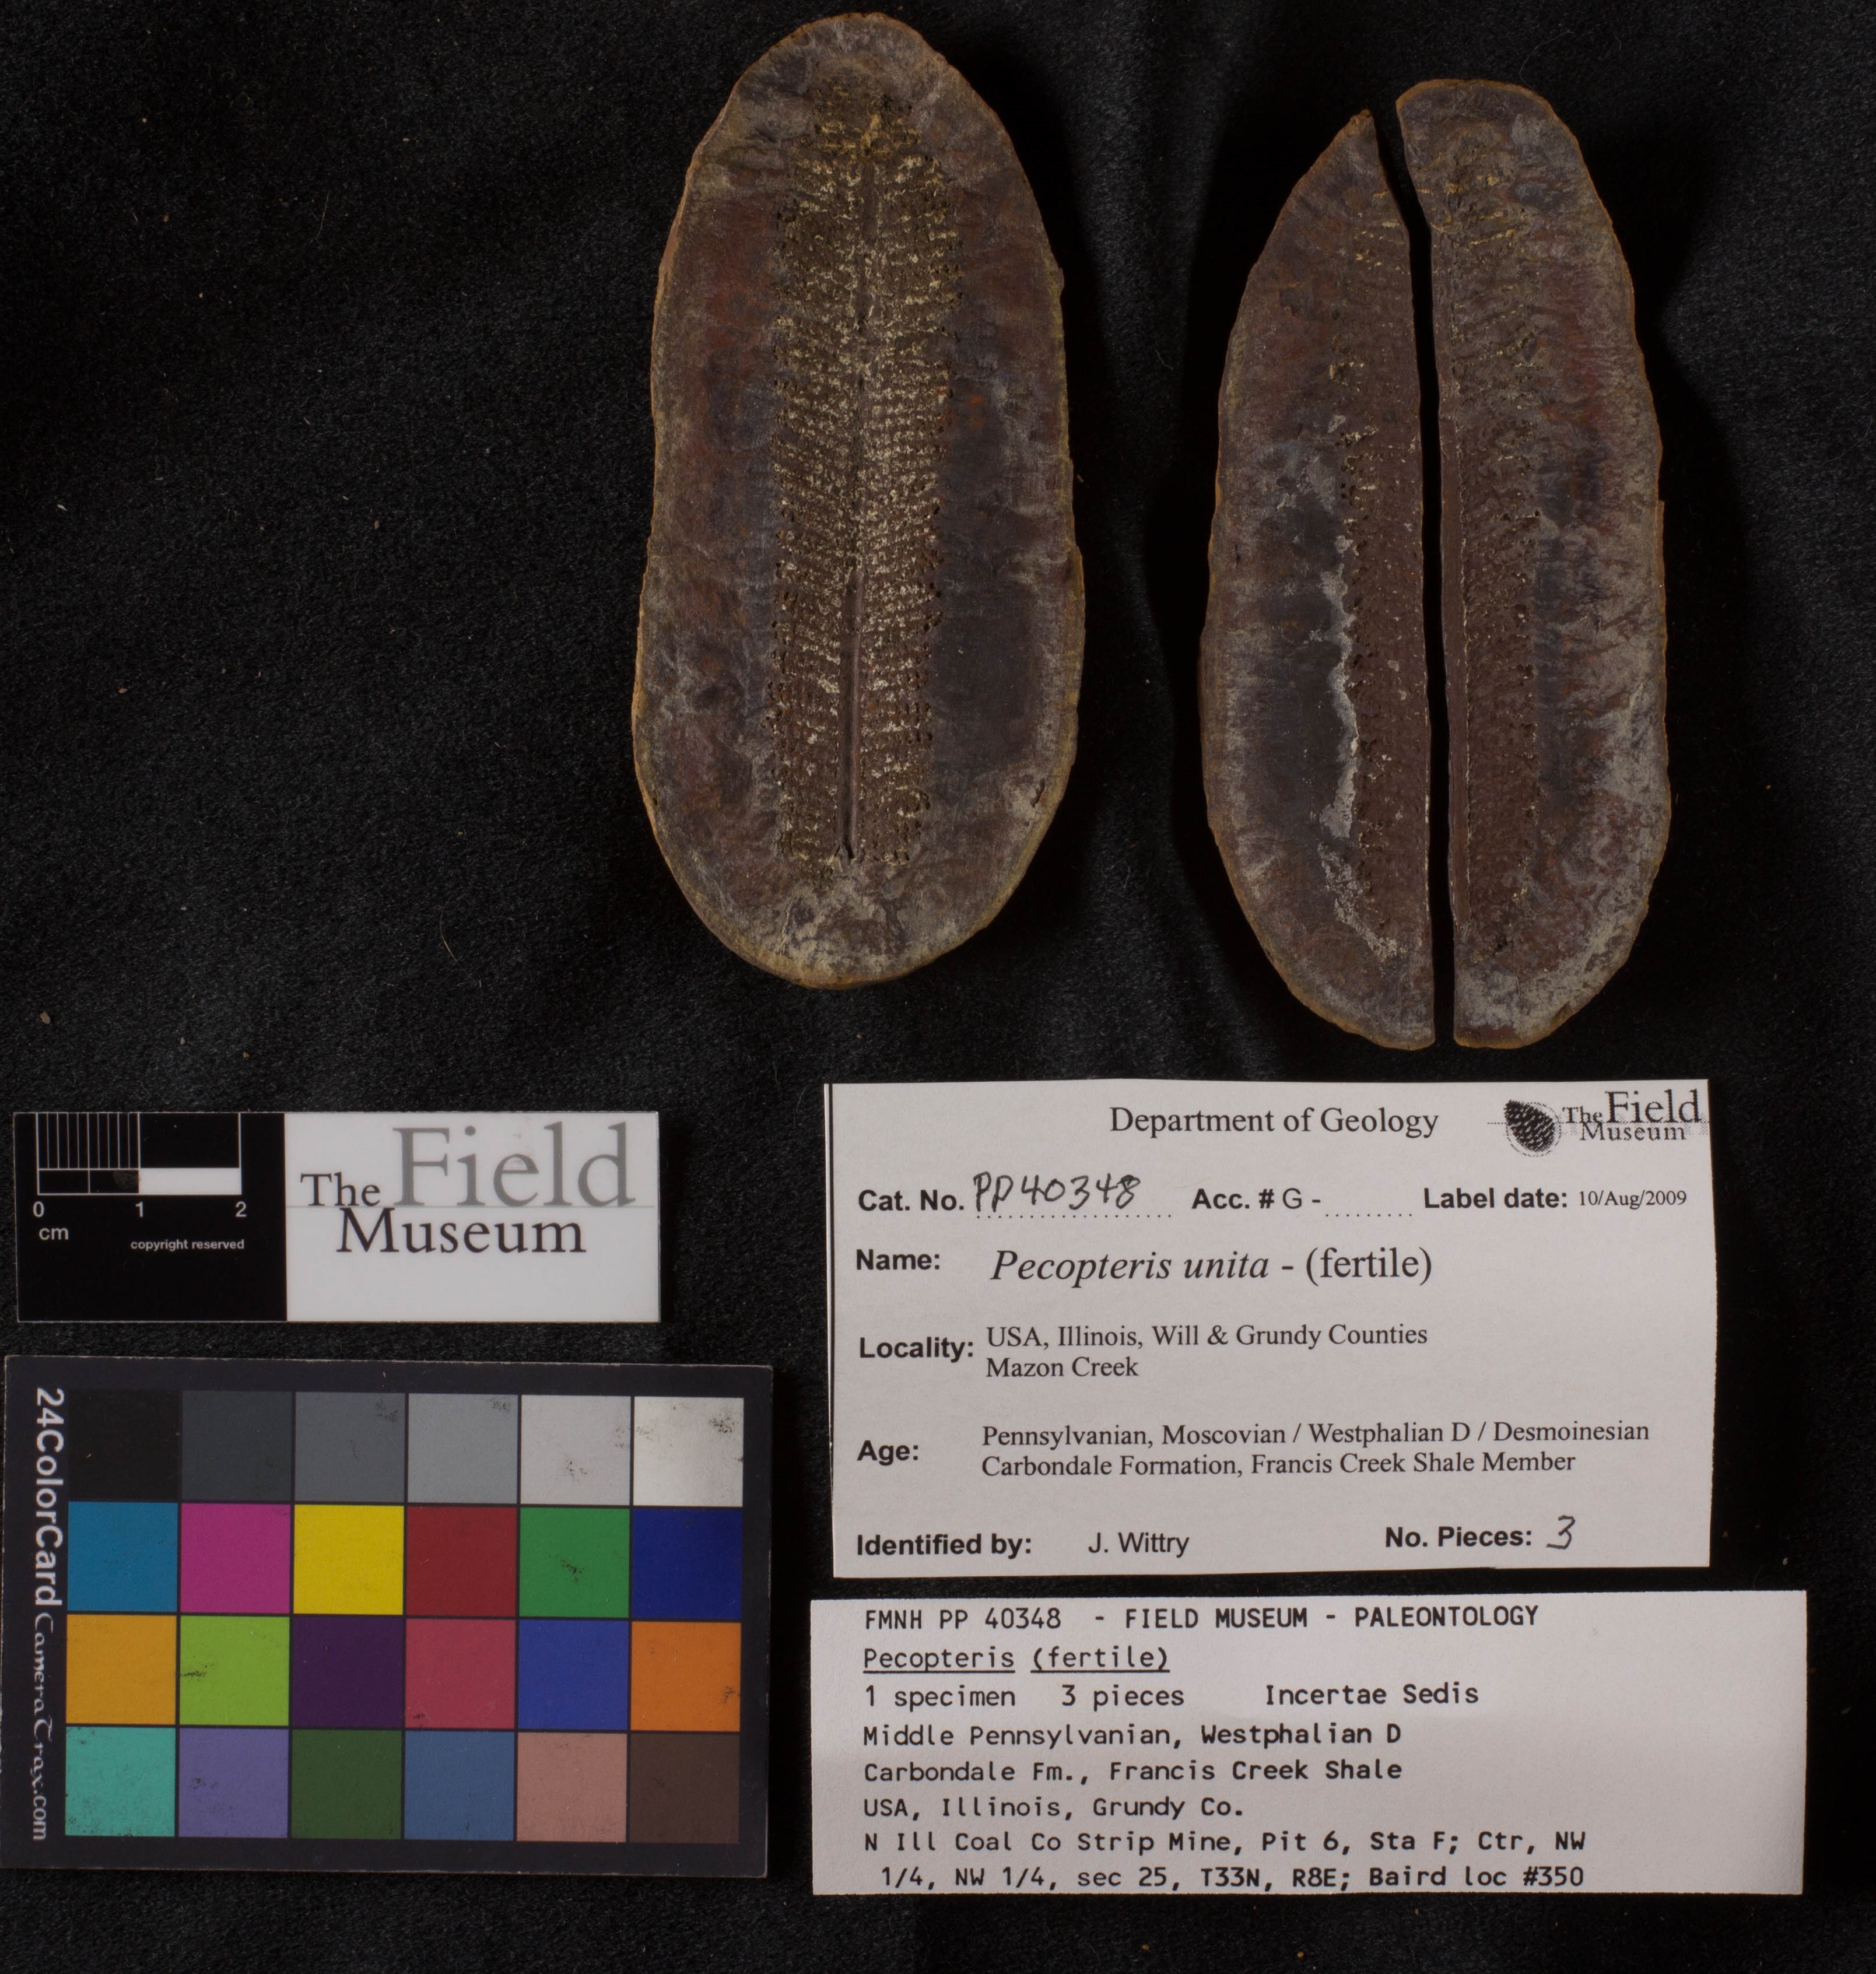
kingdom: Plantae
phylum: Tracheophyta
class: Polypodiopsida
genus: Diplazites
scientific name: Diplazites
